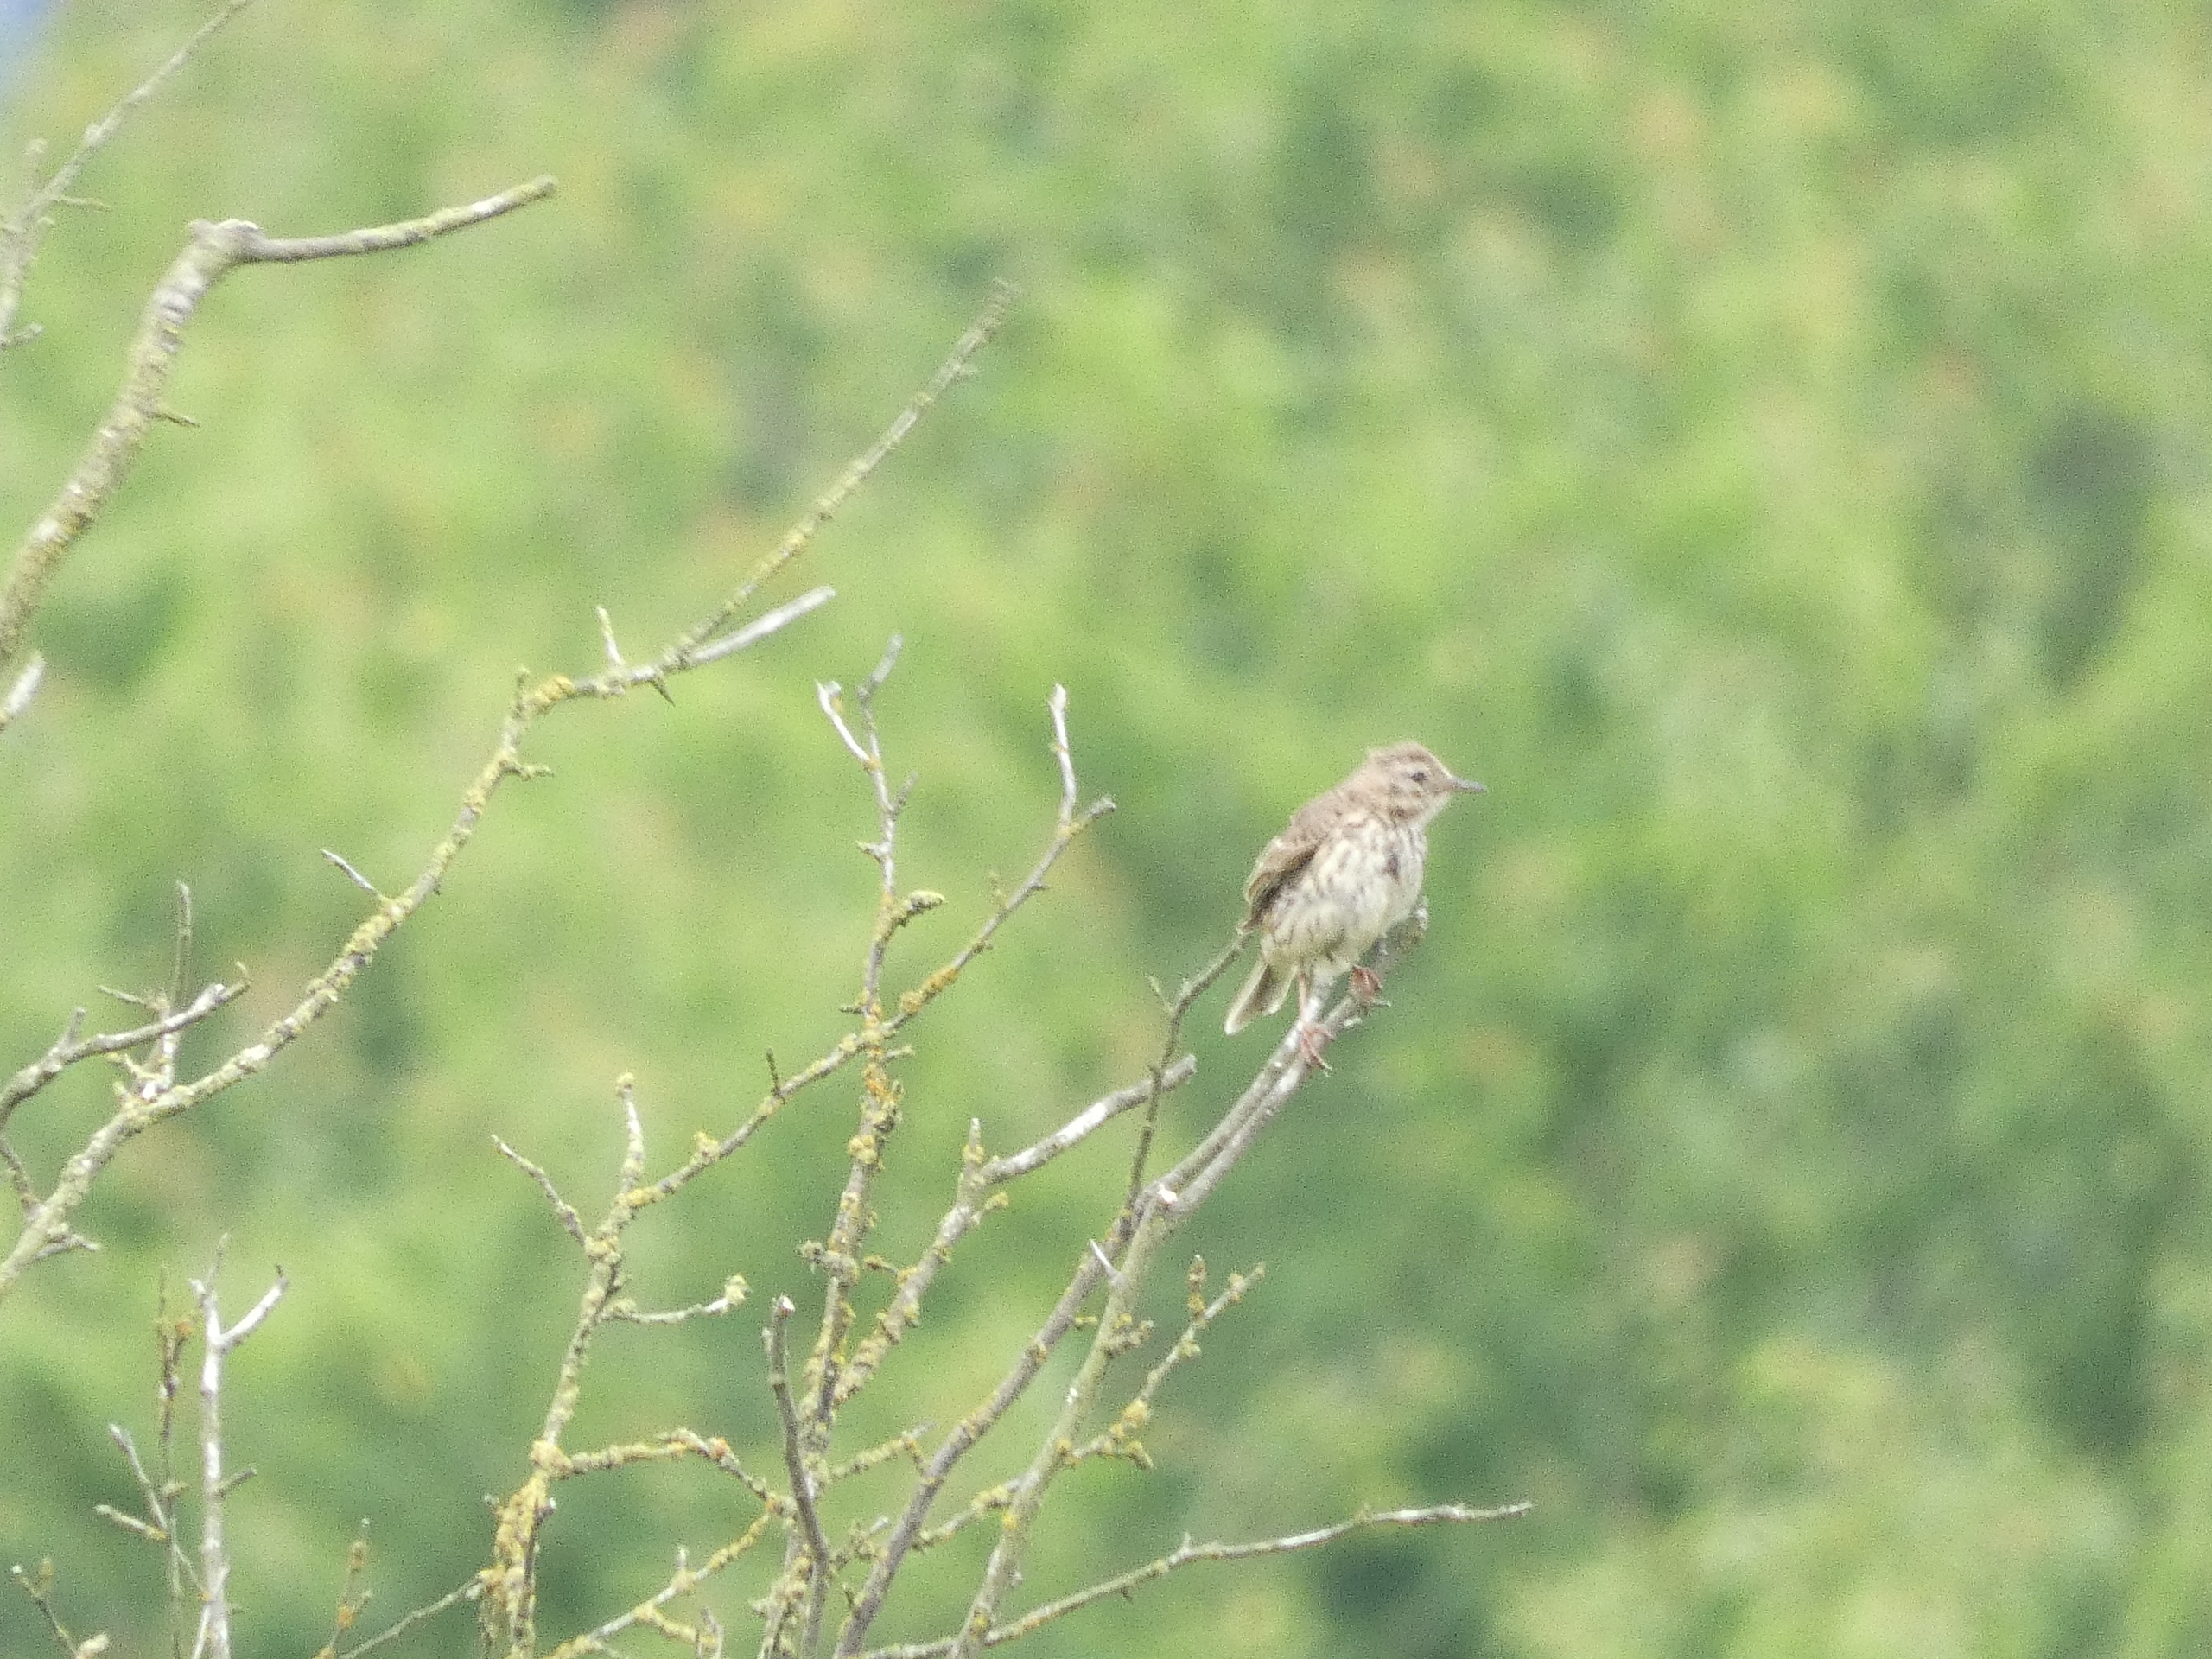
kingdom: Animalia
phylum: Chordata
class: Aves
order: Passeriformes
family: Motacillidae
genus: Anthus
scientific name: Anthus pratensis
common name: Engpiber
